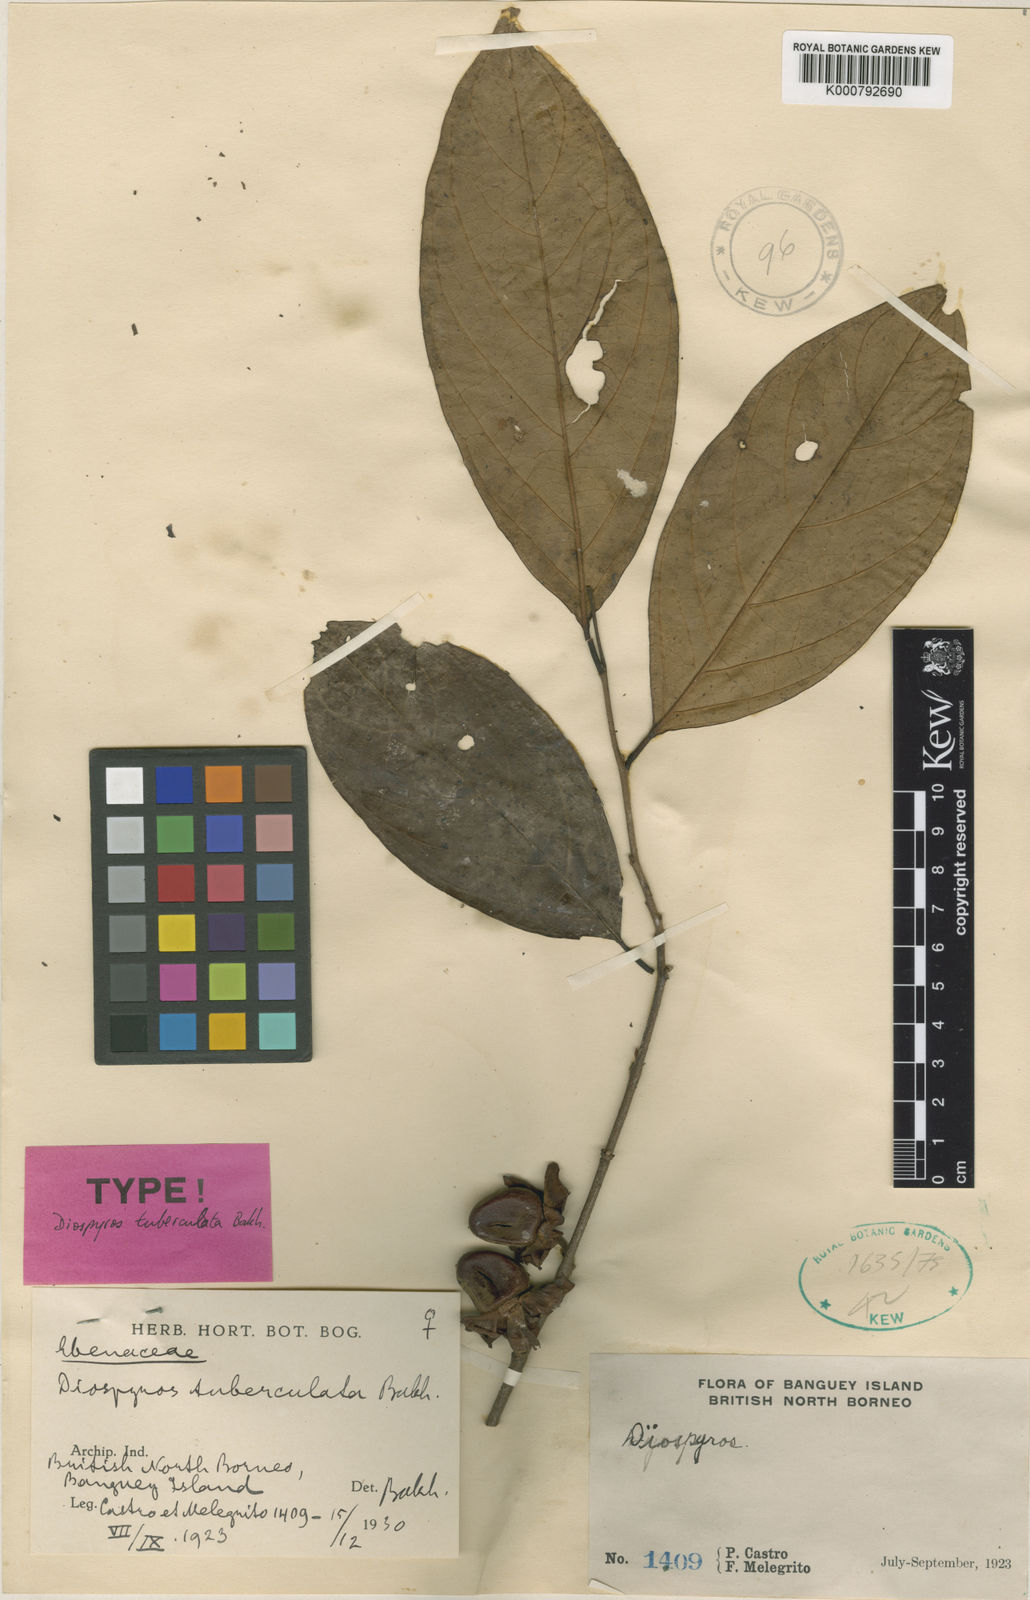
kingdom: Plantae
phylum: Tracheophyta
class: Magnoliopsida
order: Ericales
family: Ebenaceae
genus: Diospyros
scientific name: Diospyros tuberculata
